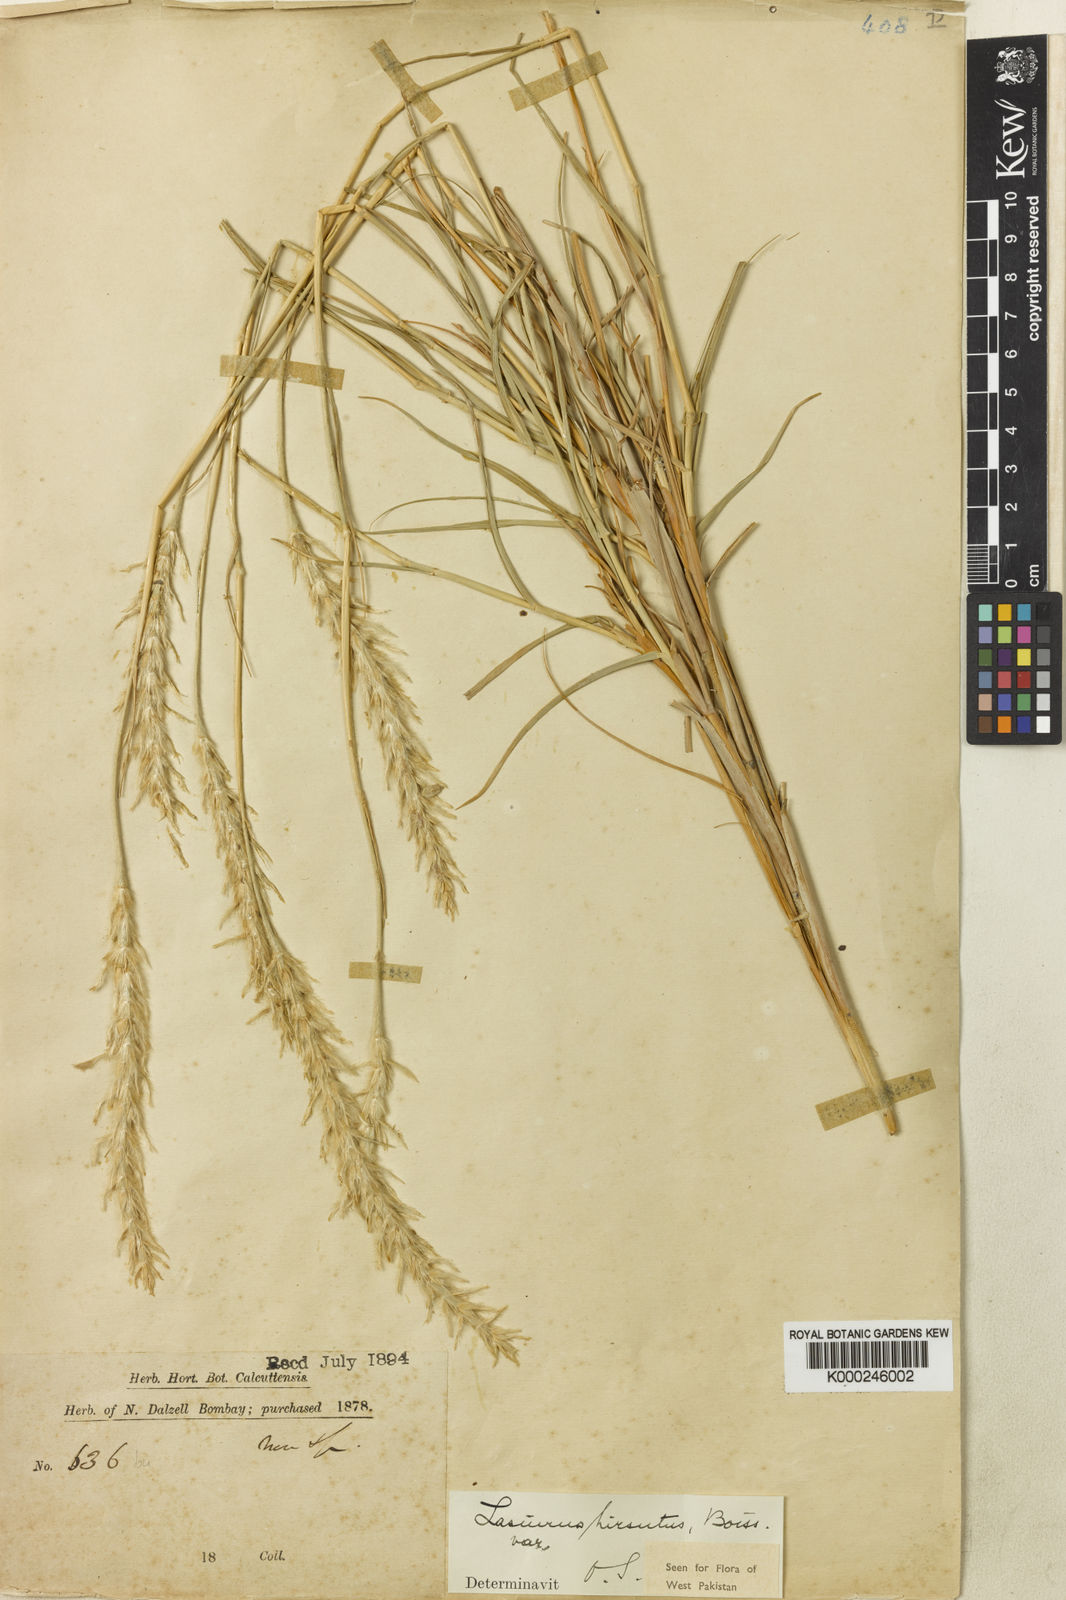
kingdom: Plantae
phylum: Tracheophyta
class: Liliopsida
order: Poales
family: Poaceae
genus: Lasiurus
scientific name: Lasiurus scindicus
